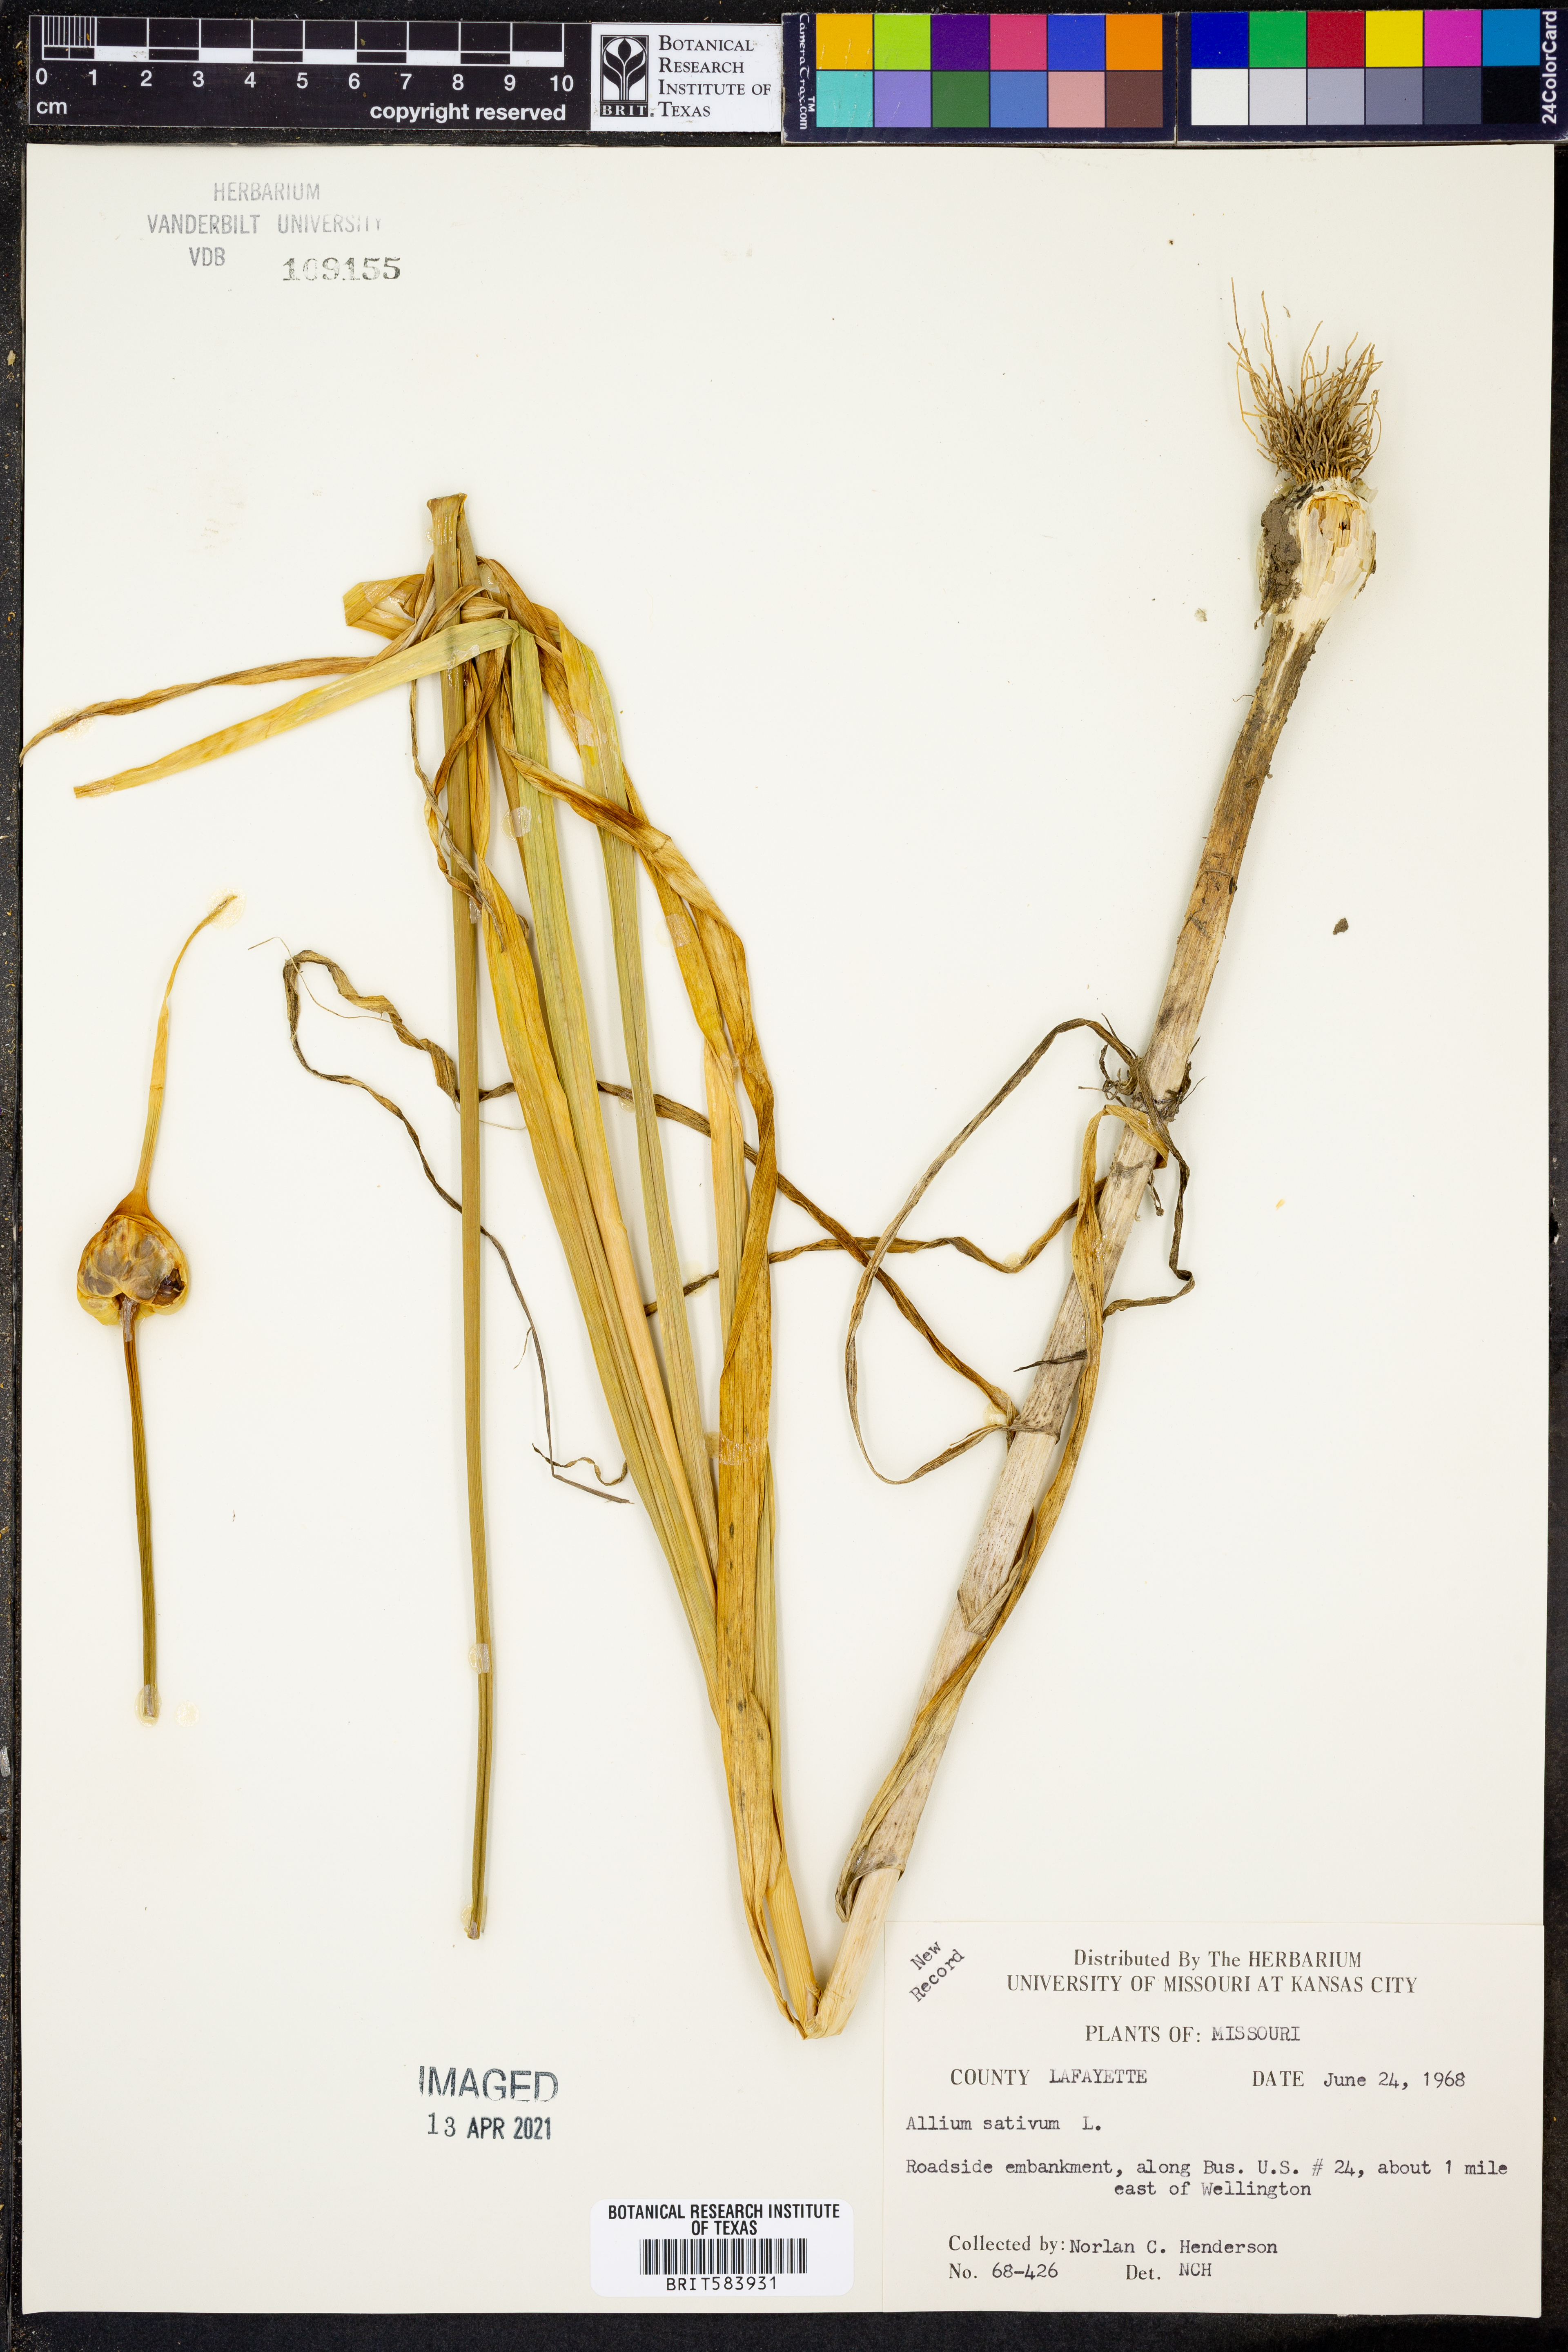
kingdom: Plantae
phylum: Tracheophyta
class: Liliopsida
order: Asparagales
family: Amaryllidaceae
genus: Allium
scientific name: Allium sativum
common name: Garlic
